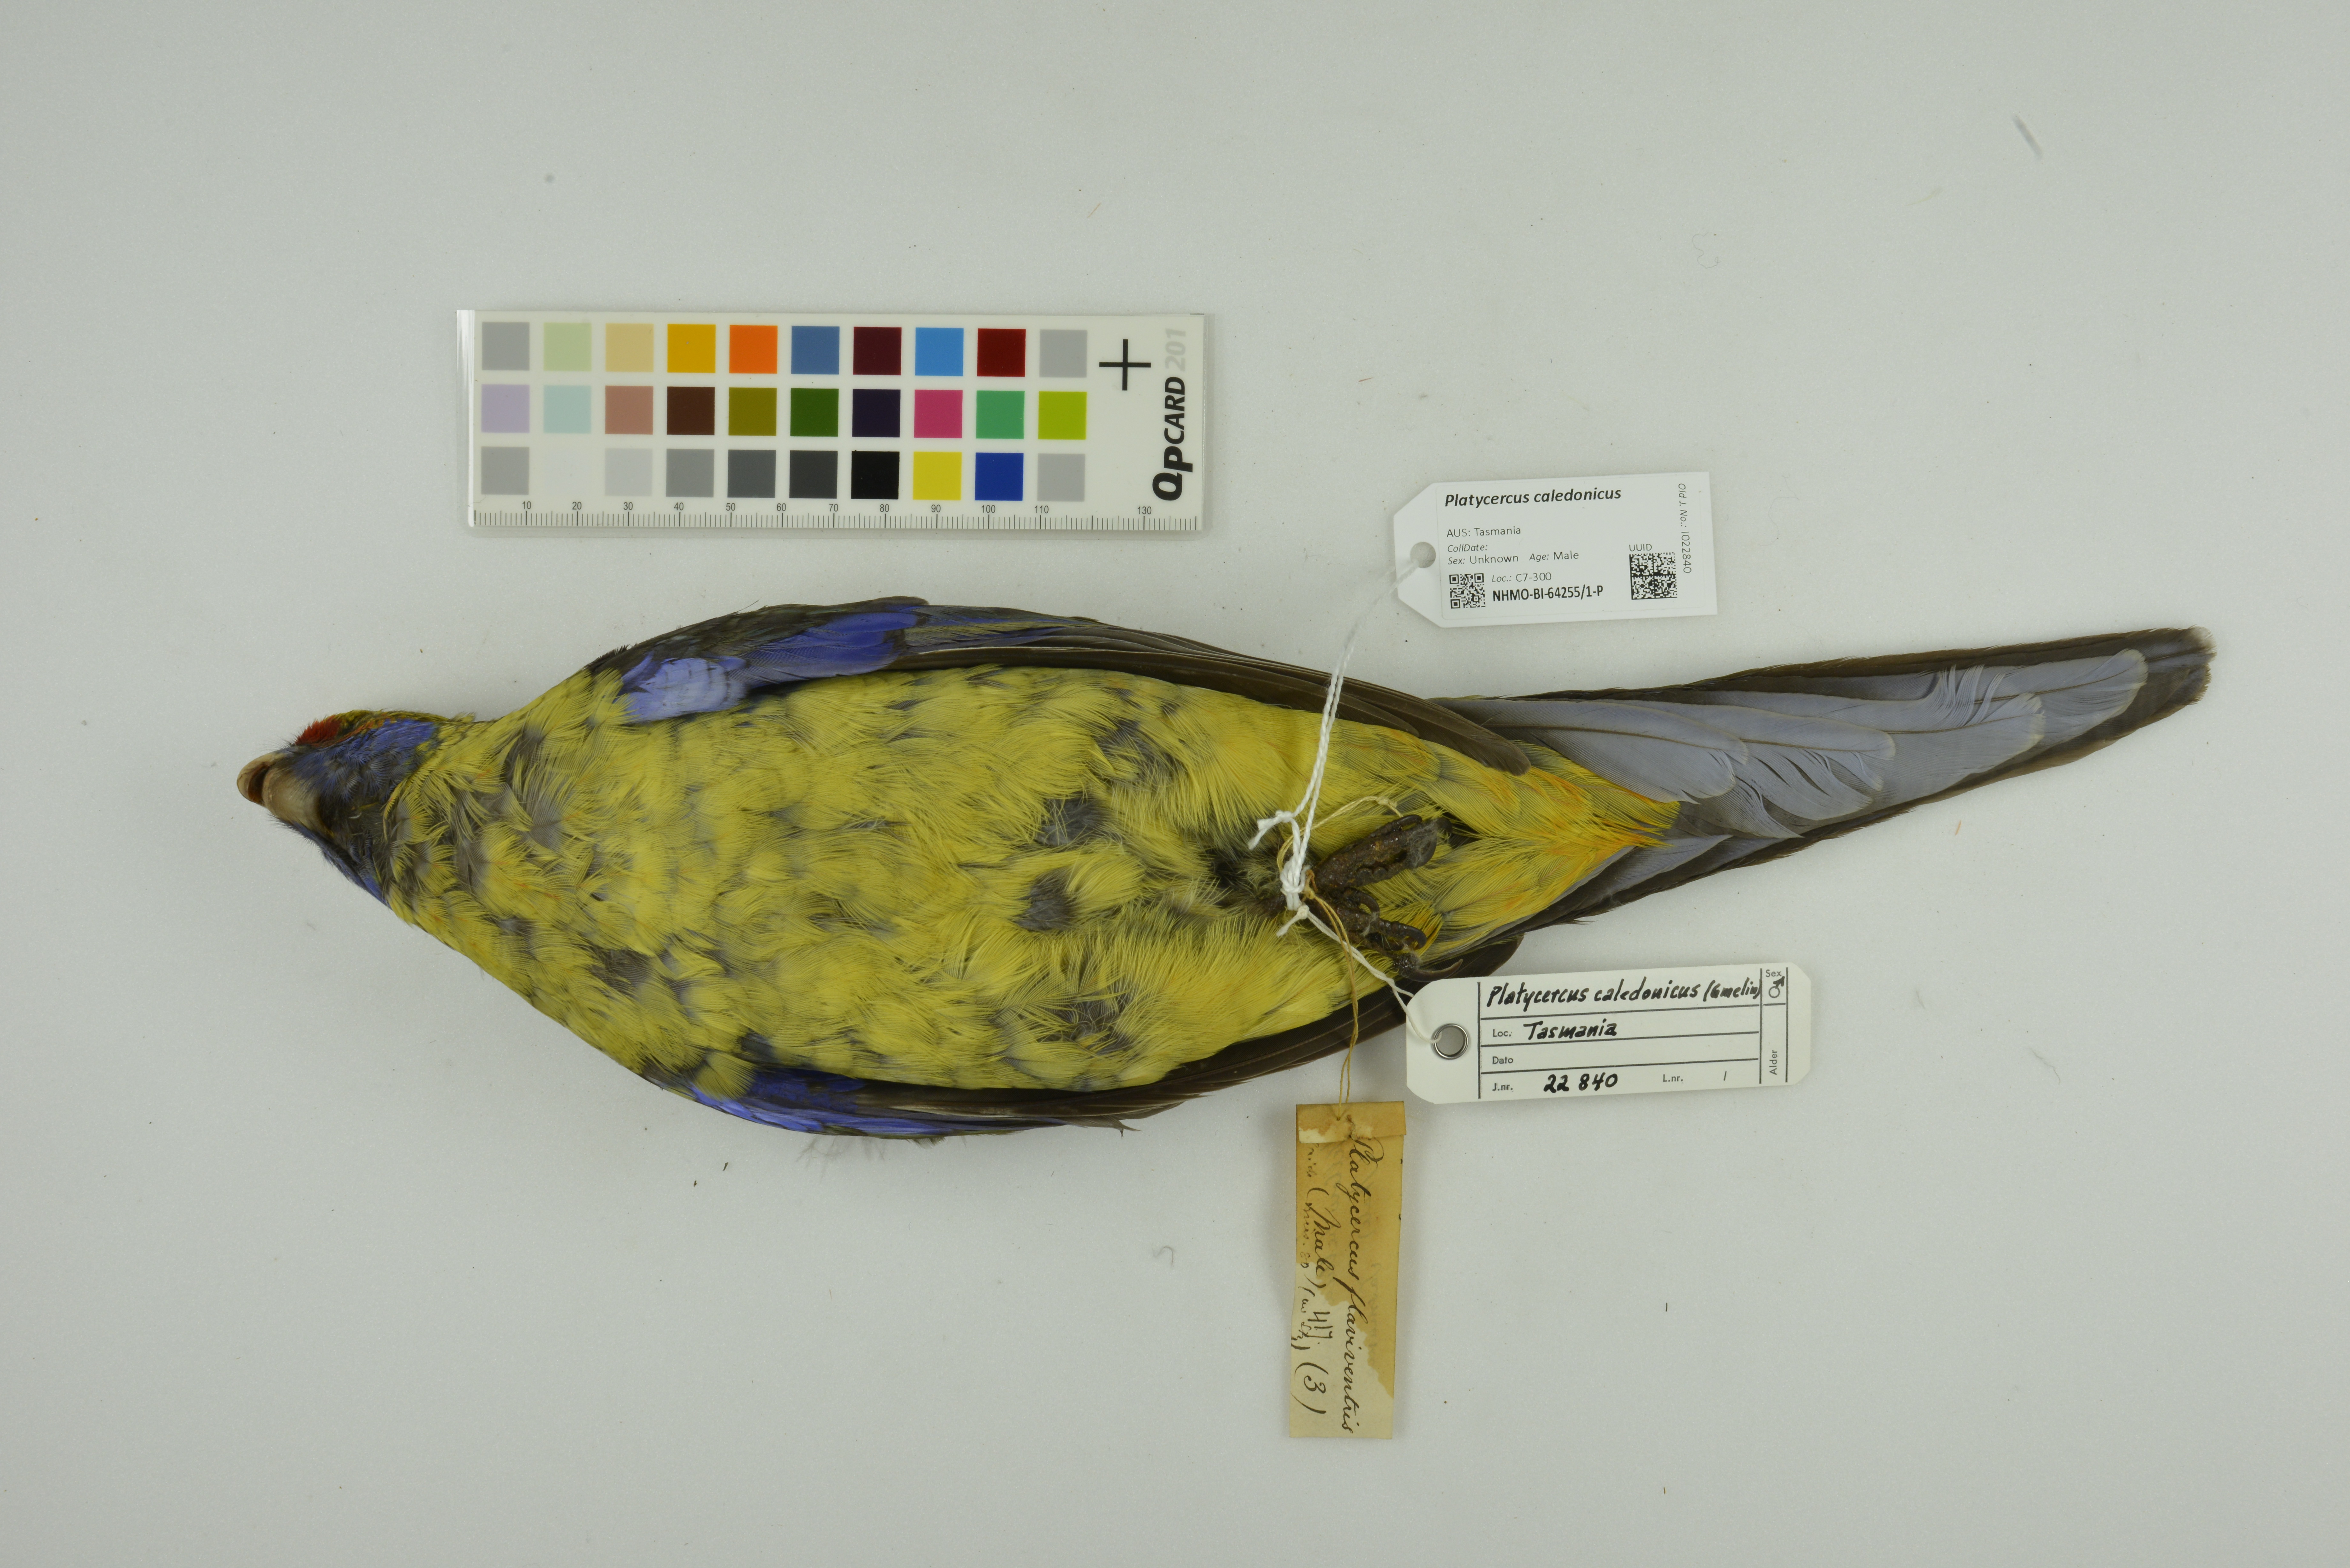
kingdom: Animalia
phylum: Chordata
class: Aves
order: Psittaciformes
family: Psittacidae
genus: Platycercus
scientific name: Platycercus caledonicus
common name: Green rosella
